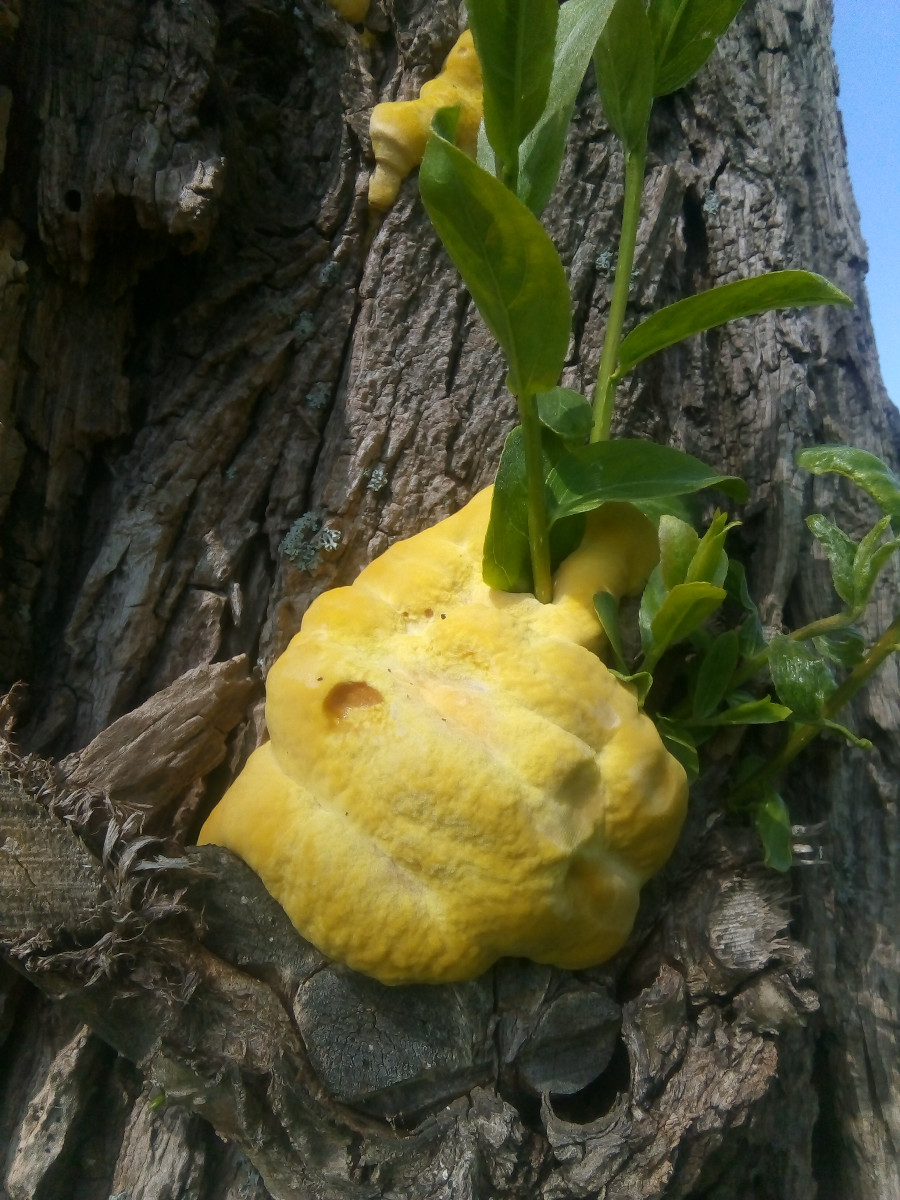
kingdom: Fungi
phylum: Basidiomycota
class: Agaricomycetes
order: Polyporales
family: Laetiporaceae
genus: Laetiporus
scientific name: Laetiporus sulphureus
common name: svovlporesvamp
